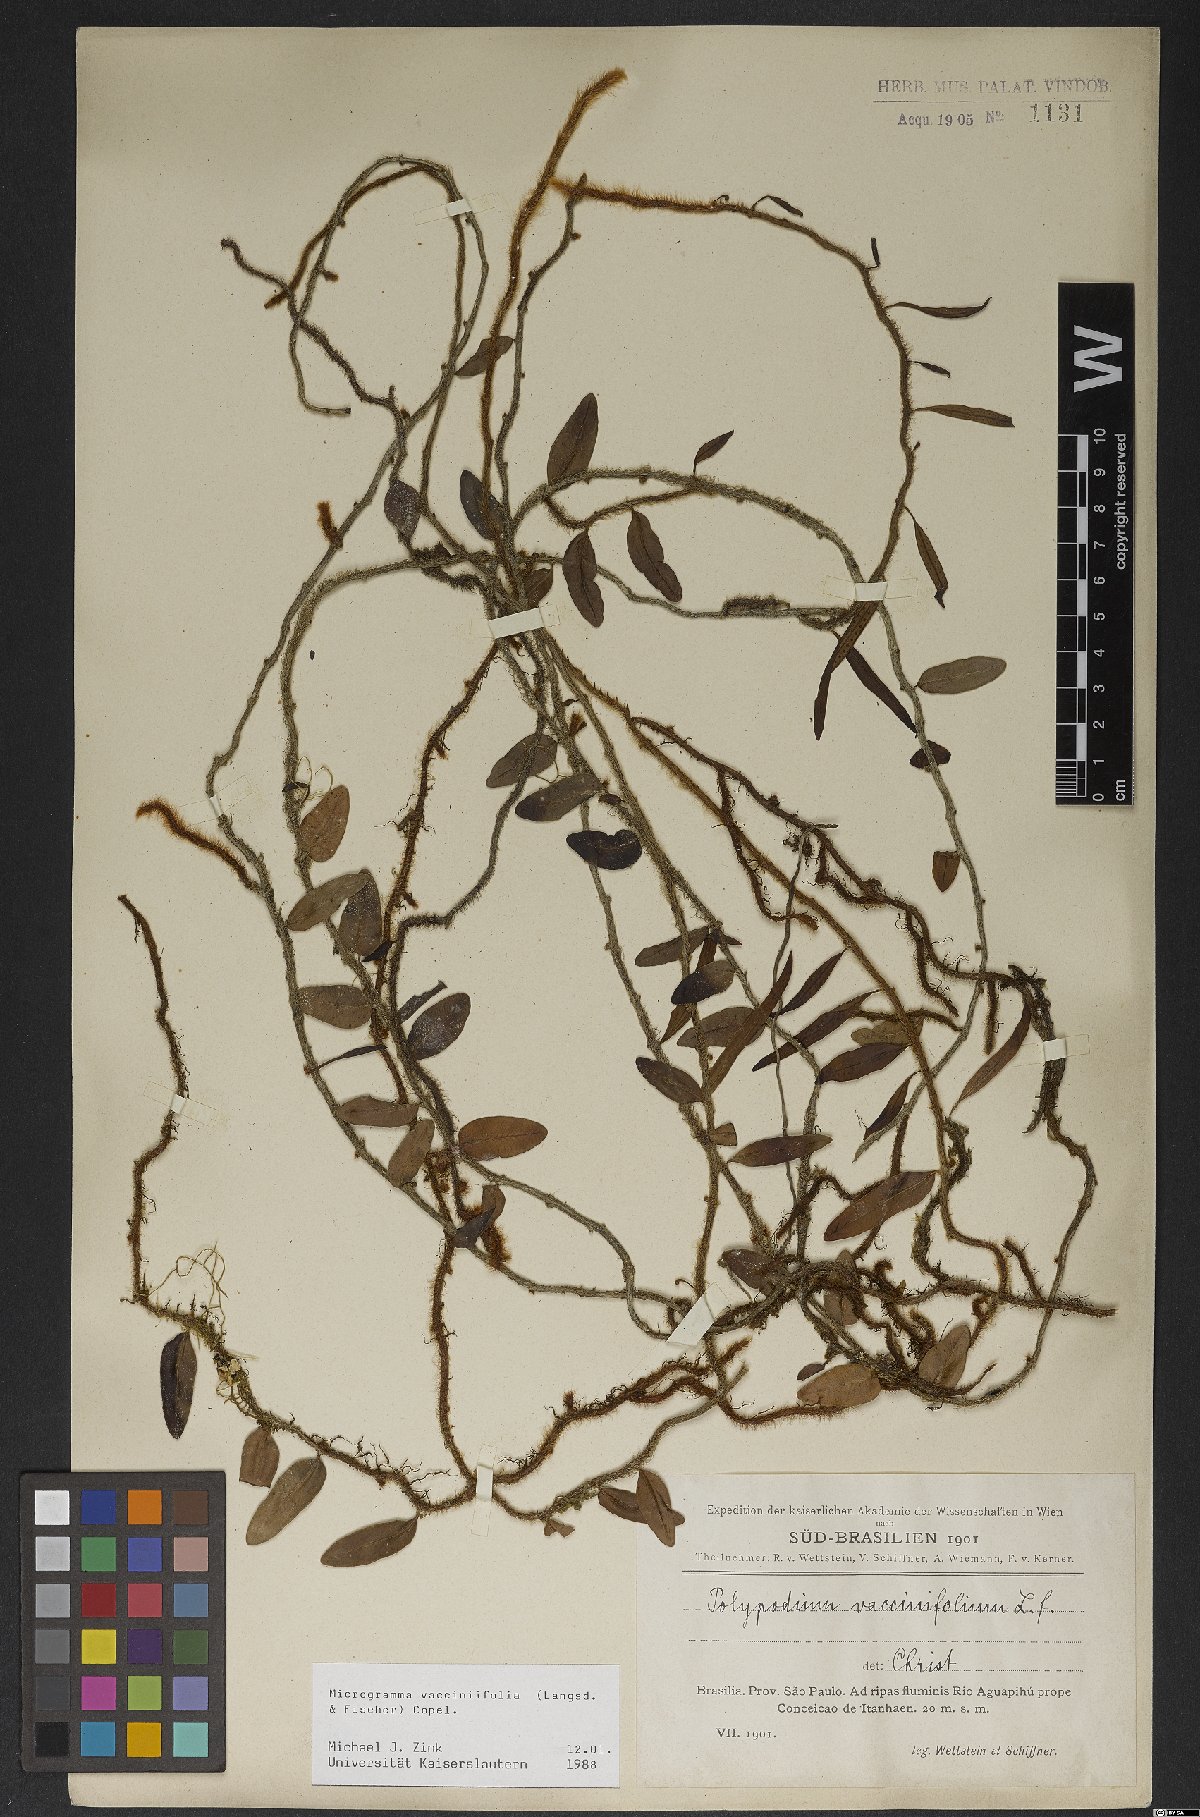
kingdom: Plantae
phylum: Tracheophyta
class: Polypodiopsida
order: Polypodiales
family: Polypodiaceae
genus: Microgramma
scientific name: Microgramma vaccinifolia
